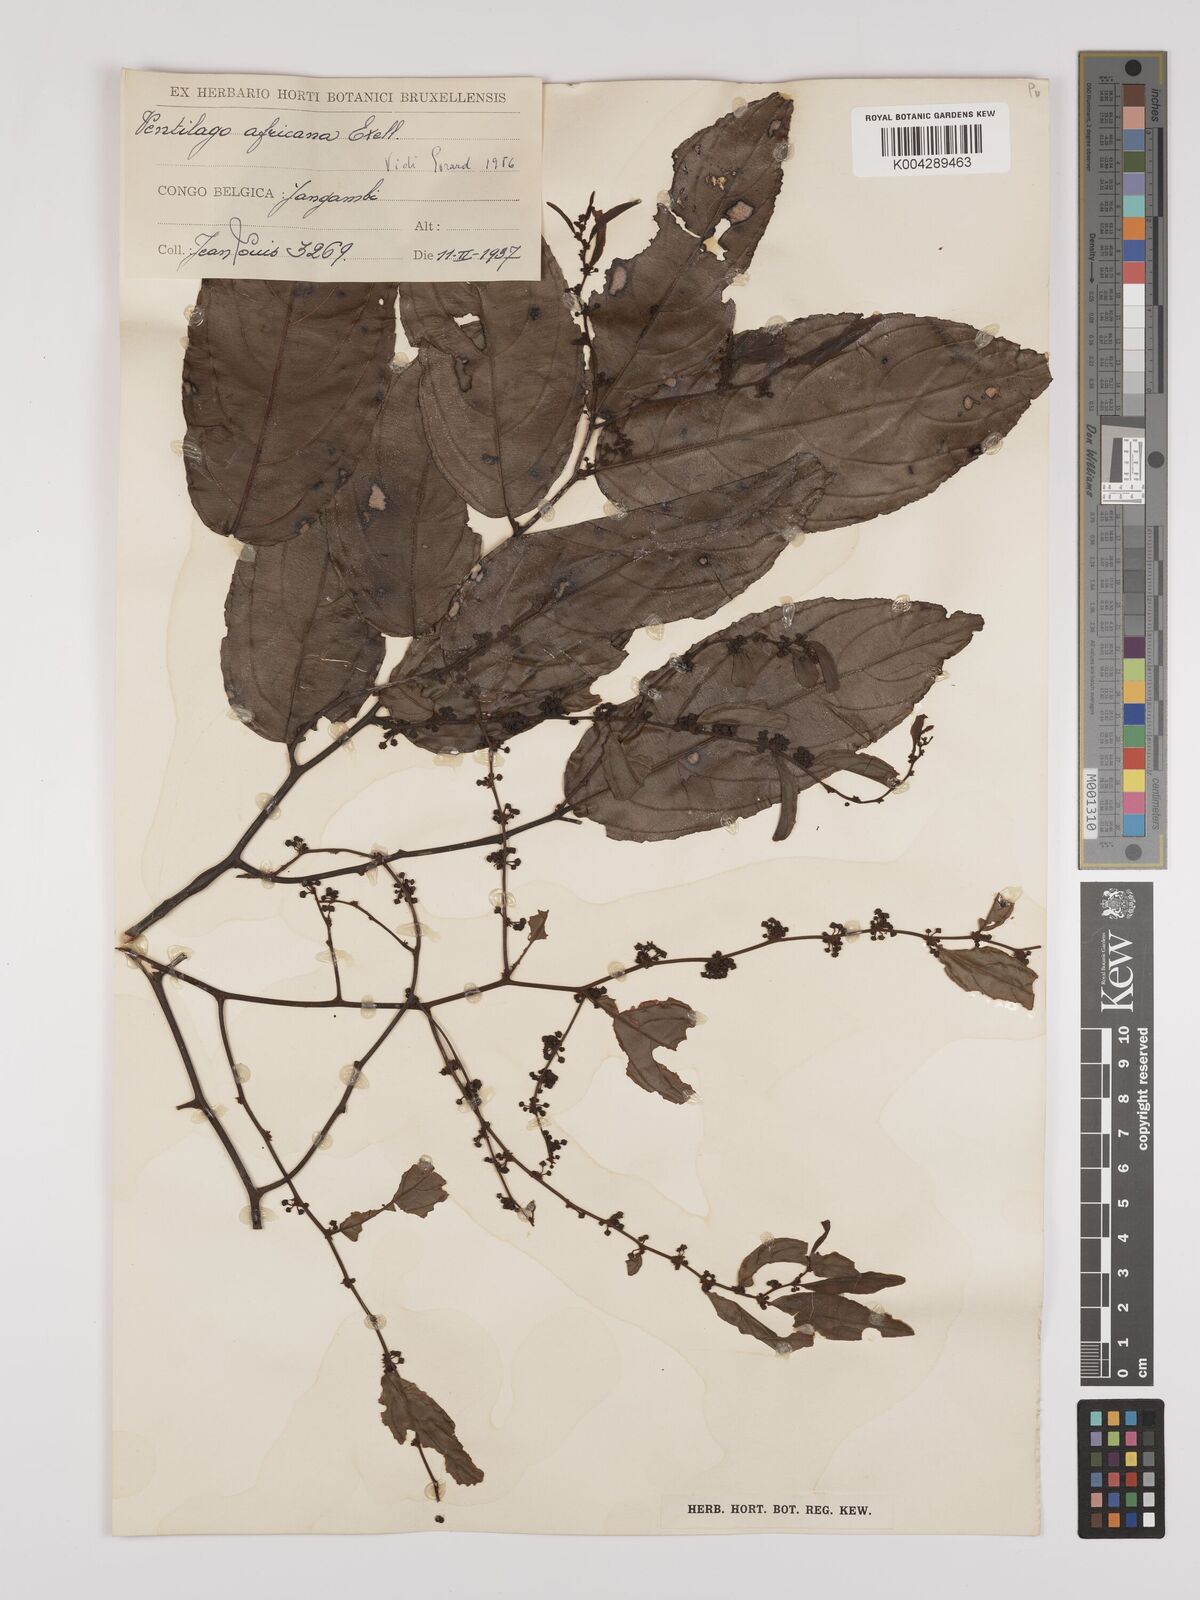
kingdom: Plantae
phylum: Tracheophyta
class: Magnoliopsida
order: Rosales
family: Rhamnaceae
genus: Ventilago
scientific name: Ventilago africana
